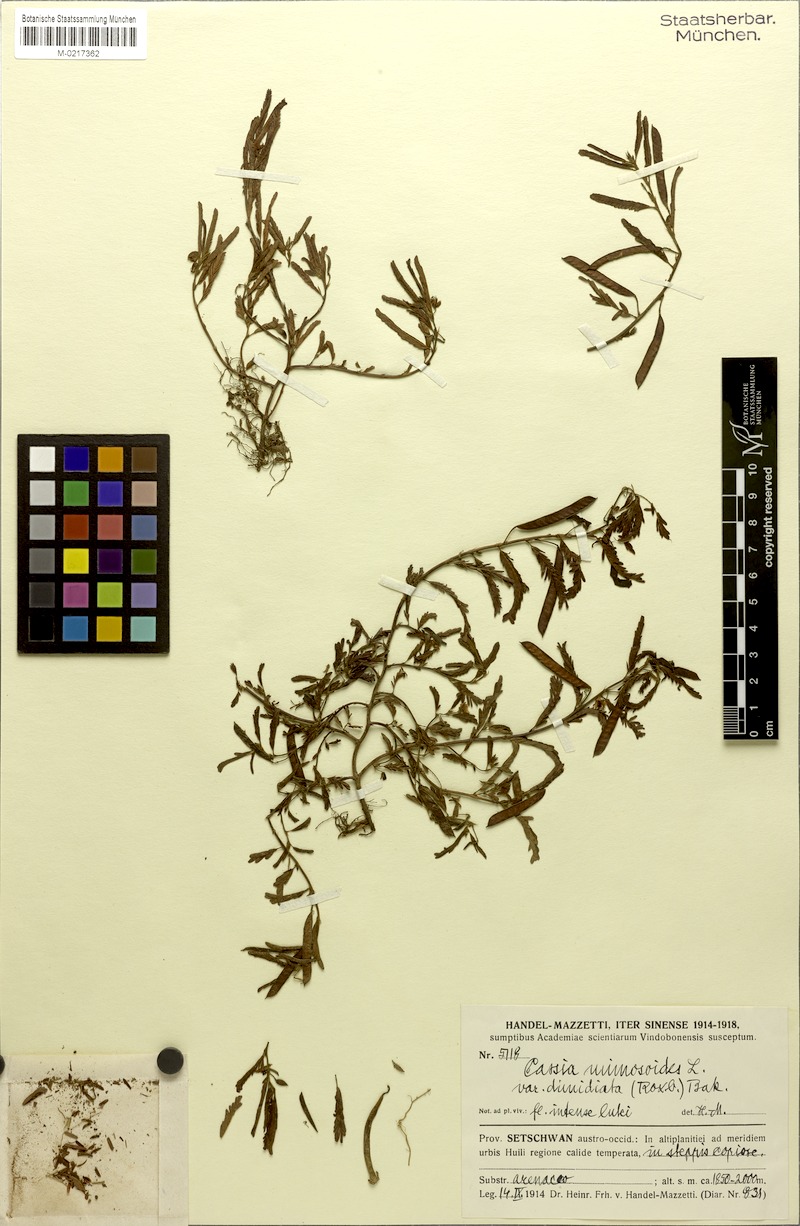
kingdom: Plantae
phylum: Tracheophyta
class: Magnoliopsida
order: Fabales
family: Fabaceae
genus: Chamaecrista
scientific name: Chamaecrista nomame
